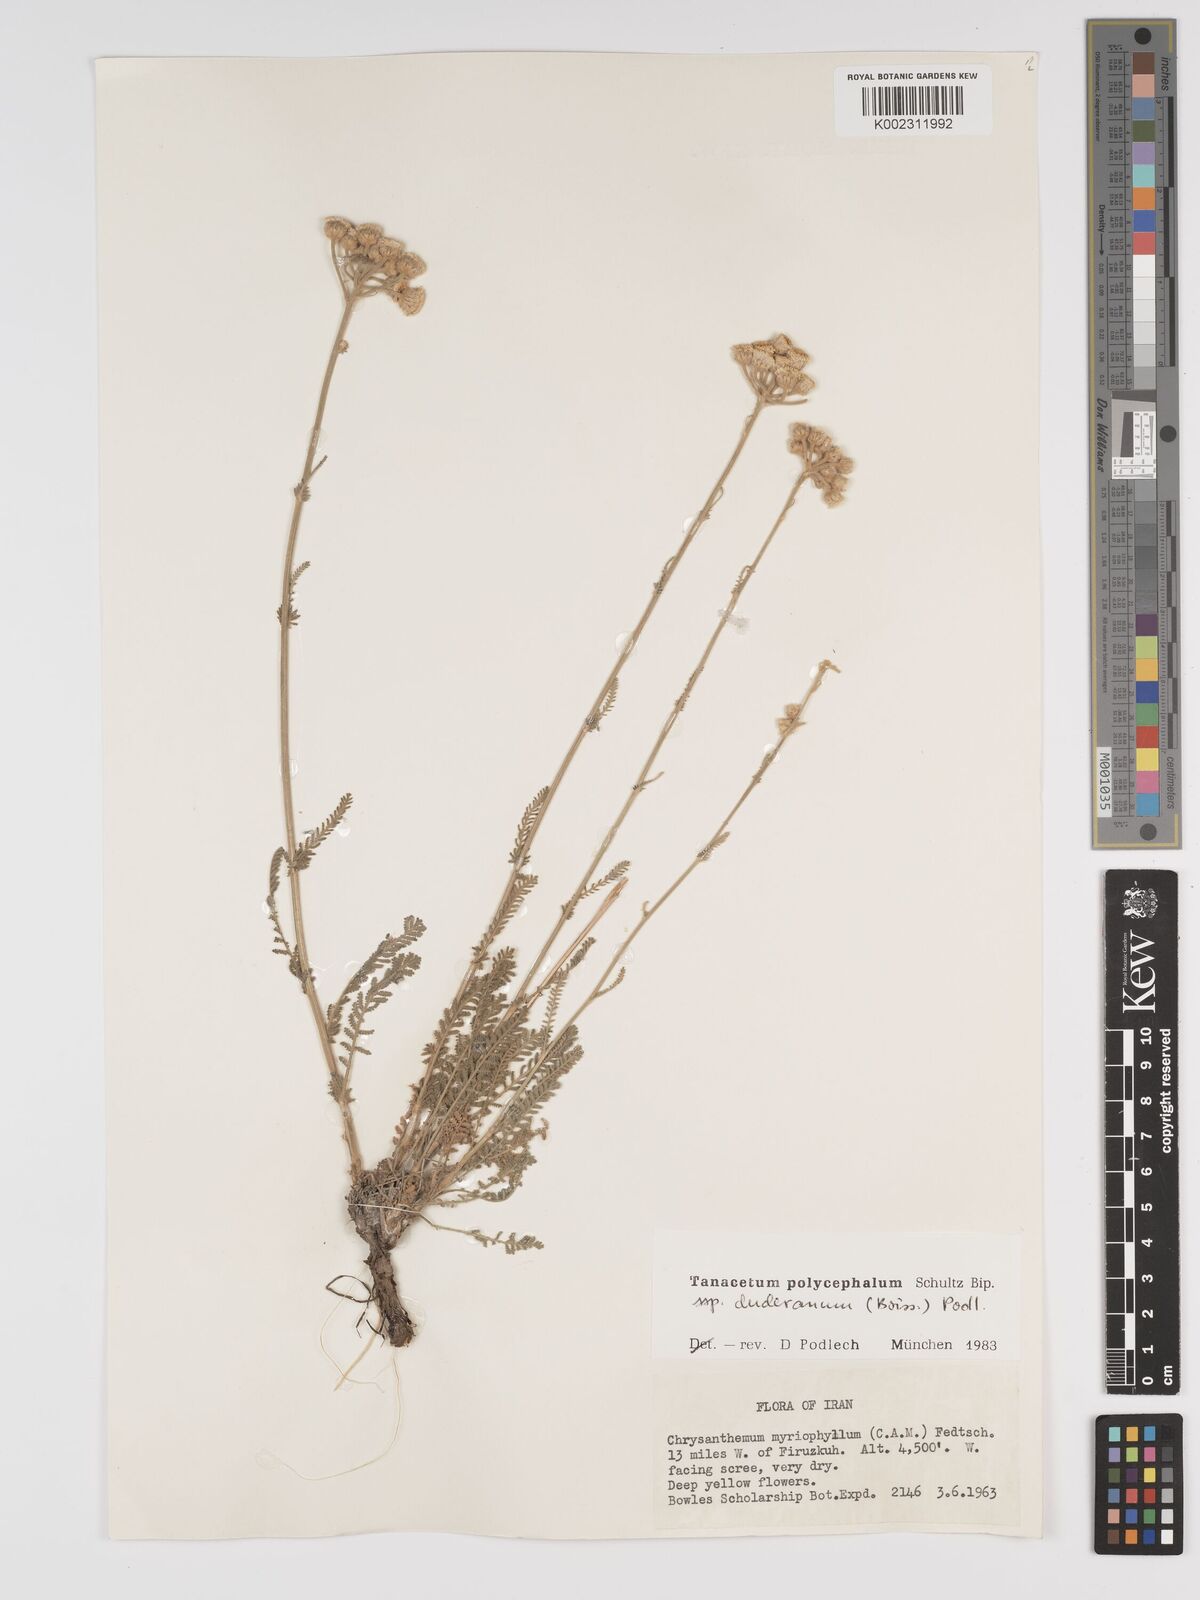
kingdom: Plantae
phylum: Tracheophyta
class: Magnoliopsida
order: Asterales
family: Asteraceae
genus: Tanacetum
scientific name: Tanacetum polycephalum
